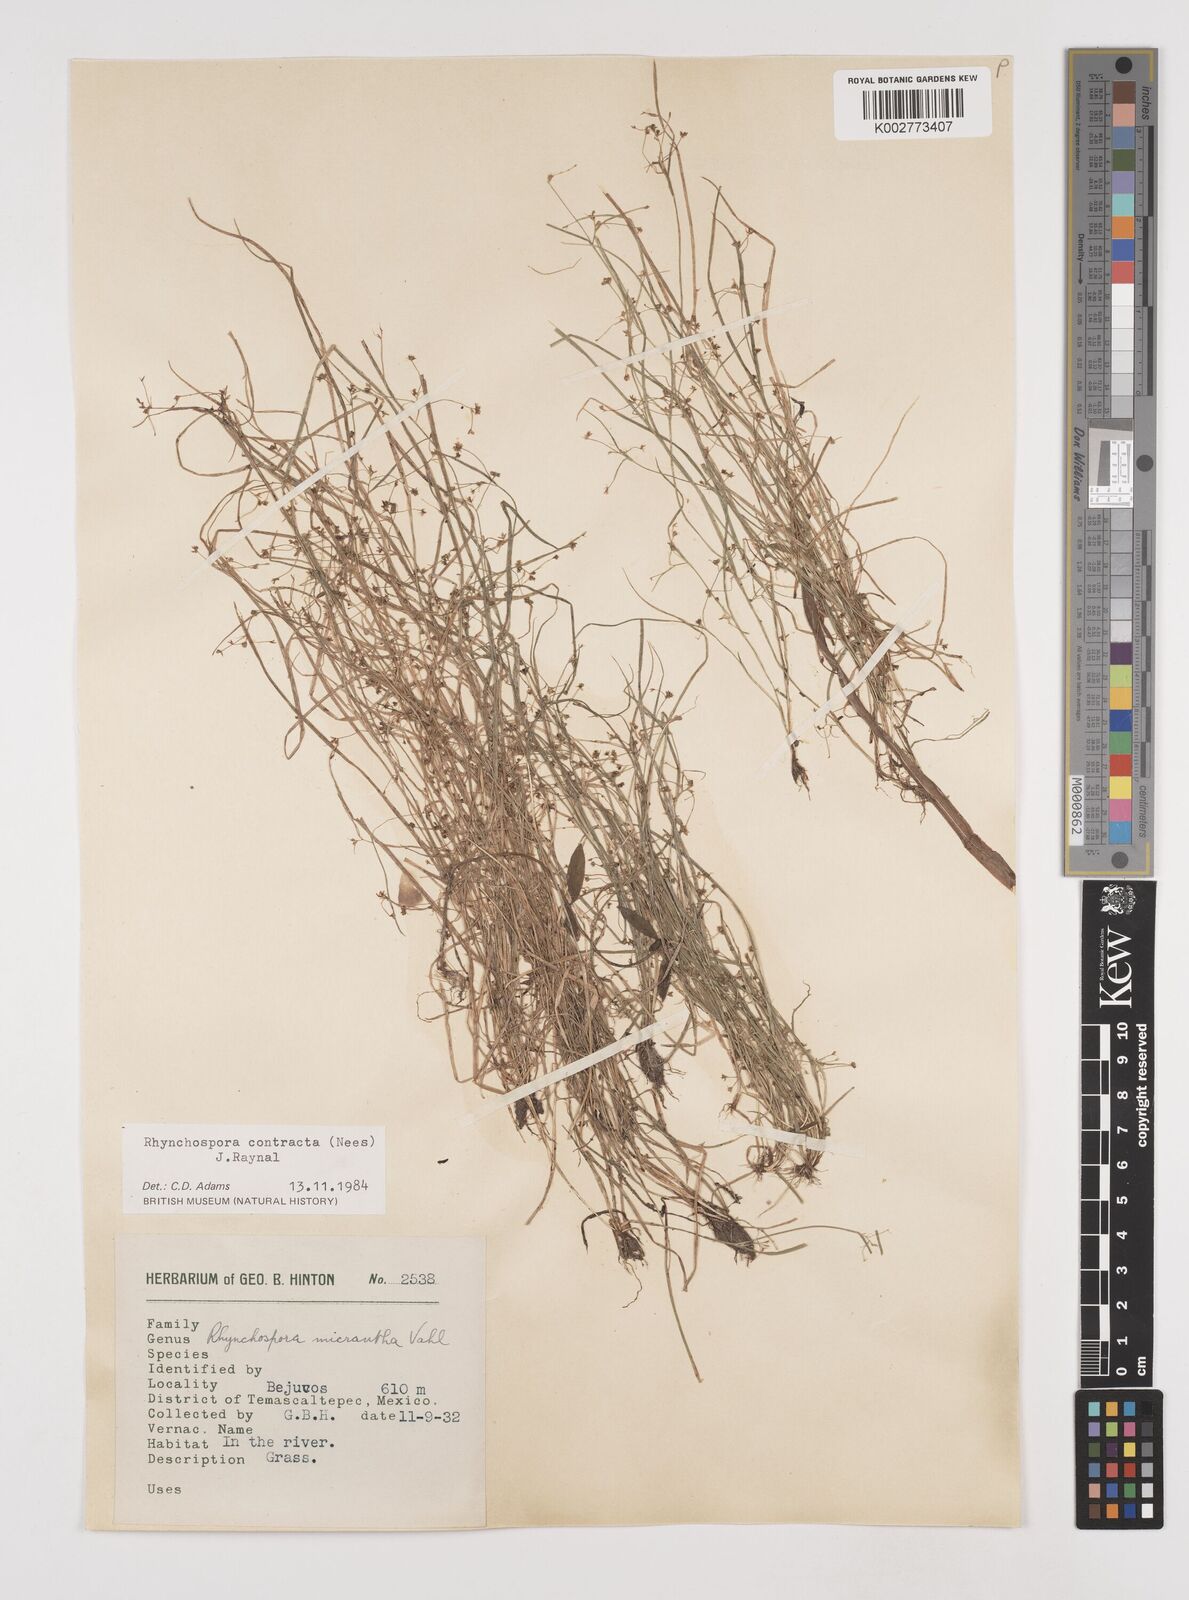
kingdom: Plantae
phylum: Tracheophyta
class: Liliopsida
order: Poales
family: Cyperaceae
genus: Rhynchospora
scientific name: Rhynchospora contracta
